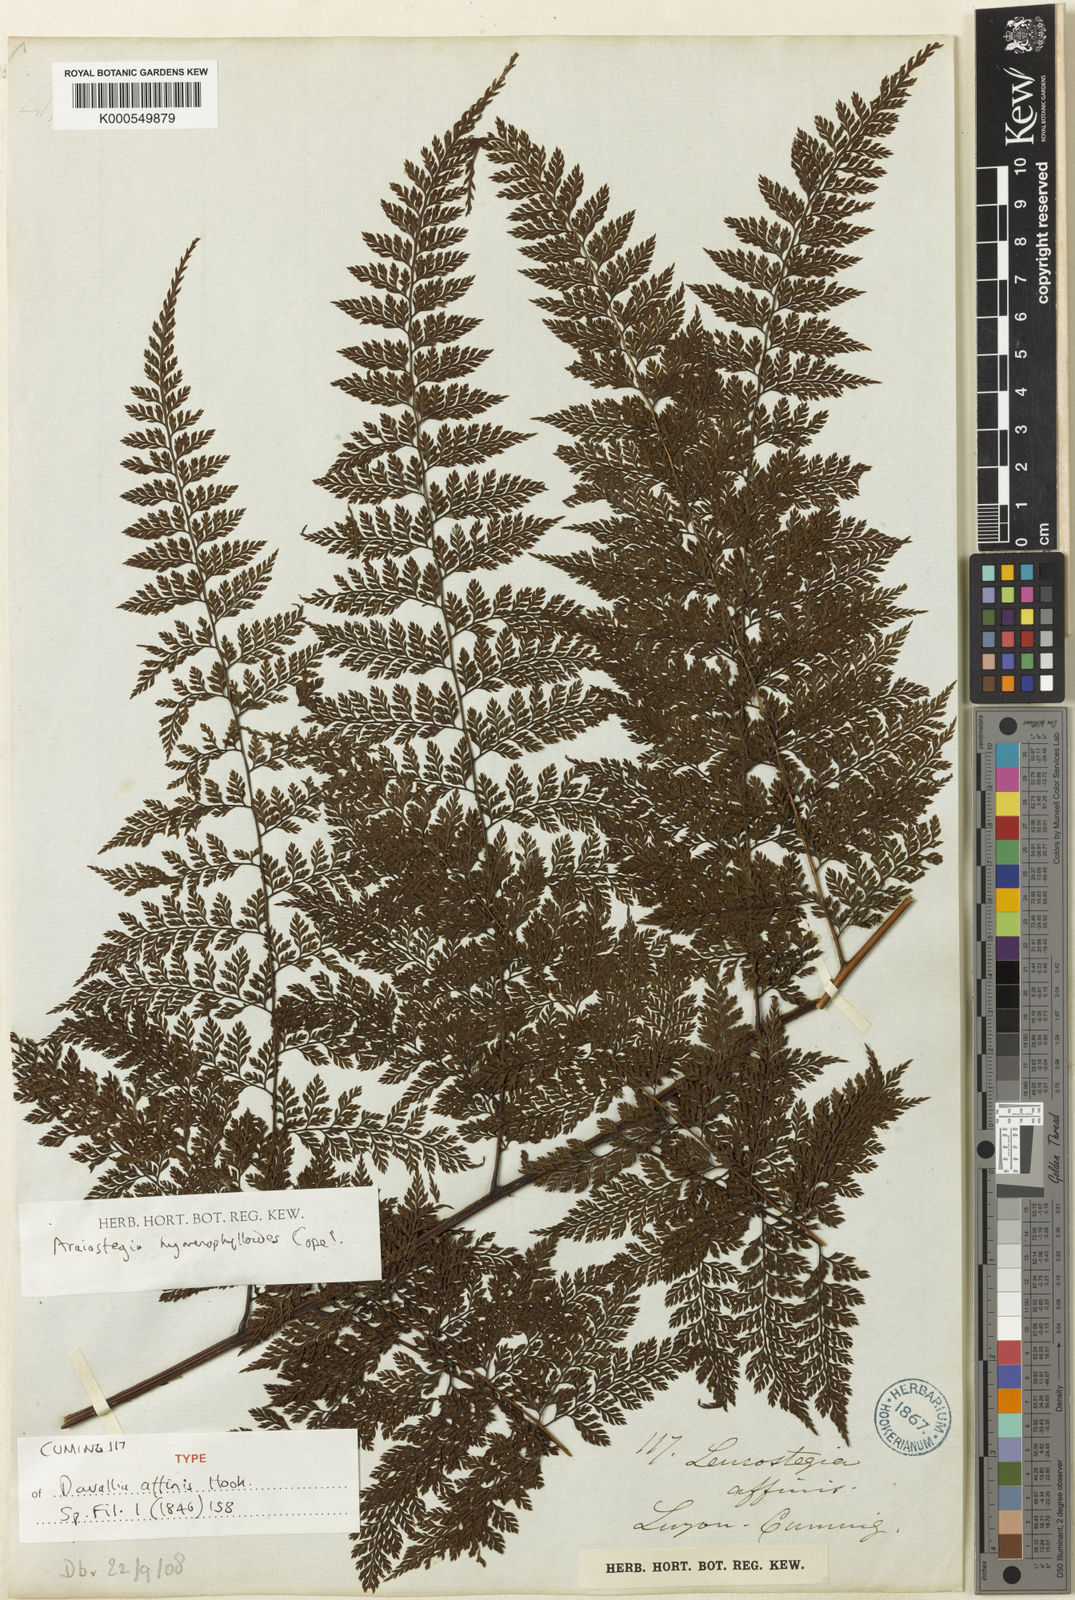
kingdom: Plantae
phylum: Tracheophyta
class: Polypodiopsida
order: Polypodiales
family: Davalliaceae
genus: Davallodes
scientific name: Davallodes hymenophylloides
